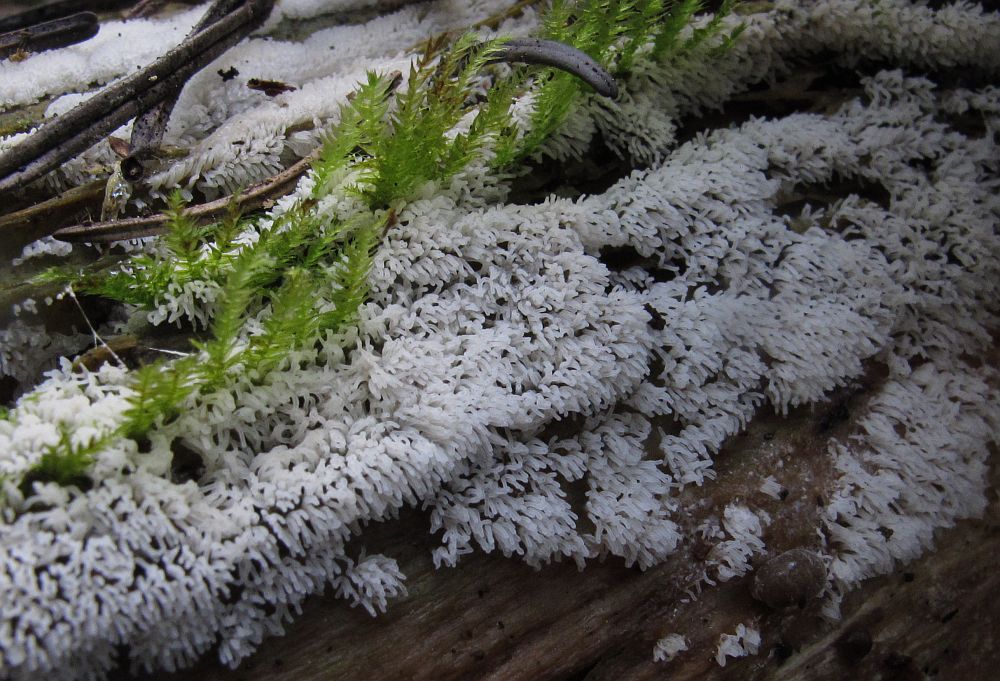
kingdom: Protozoa
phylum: Mycetozoa
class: Protosteliomycetes
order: Ceratiomyxales
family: Ceratiomyxaceae
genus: Ceratiomyxa
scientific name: Ceratiomyxa fruticulosa
